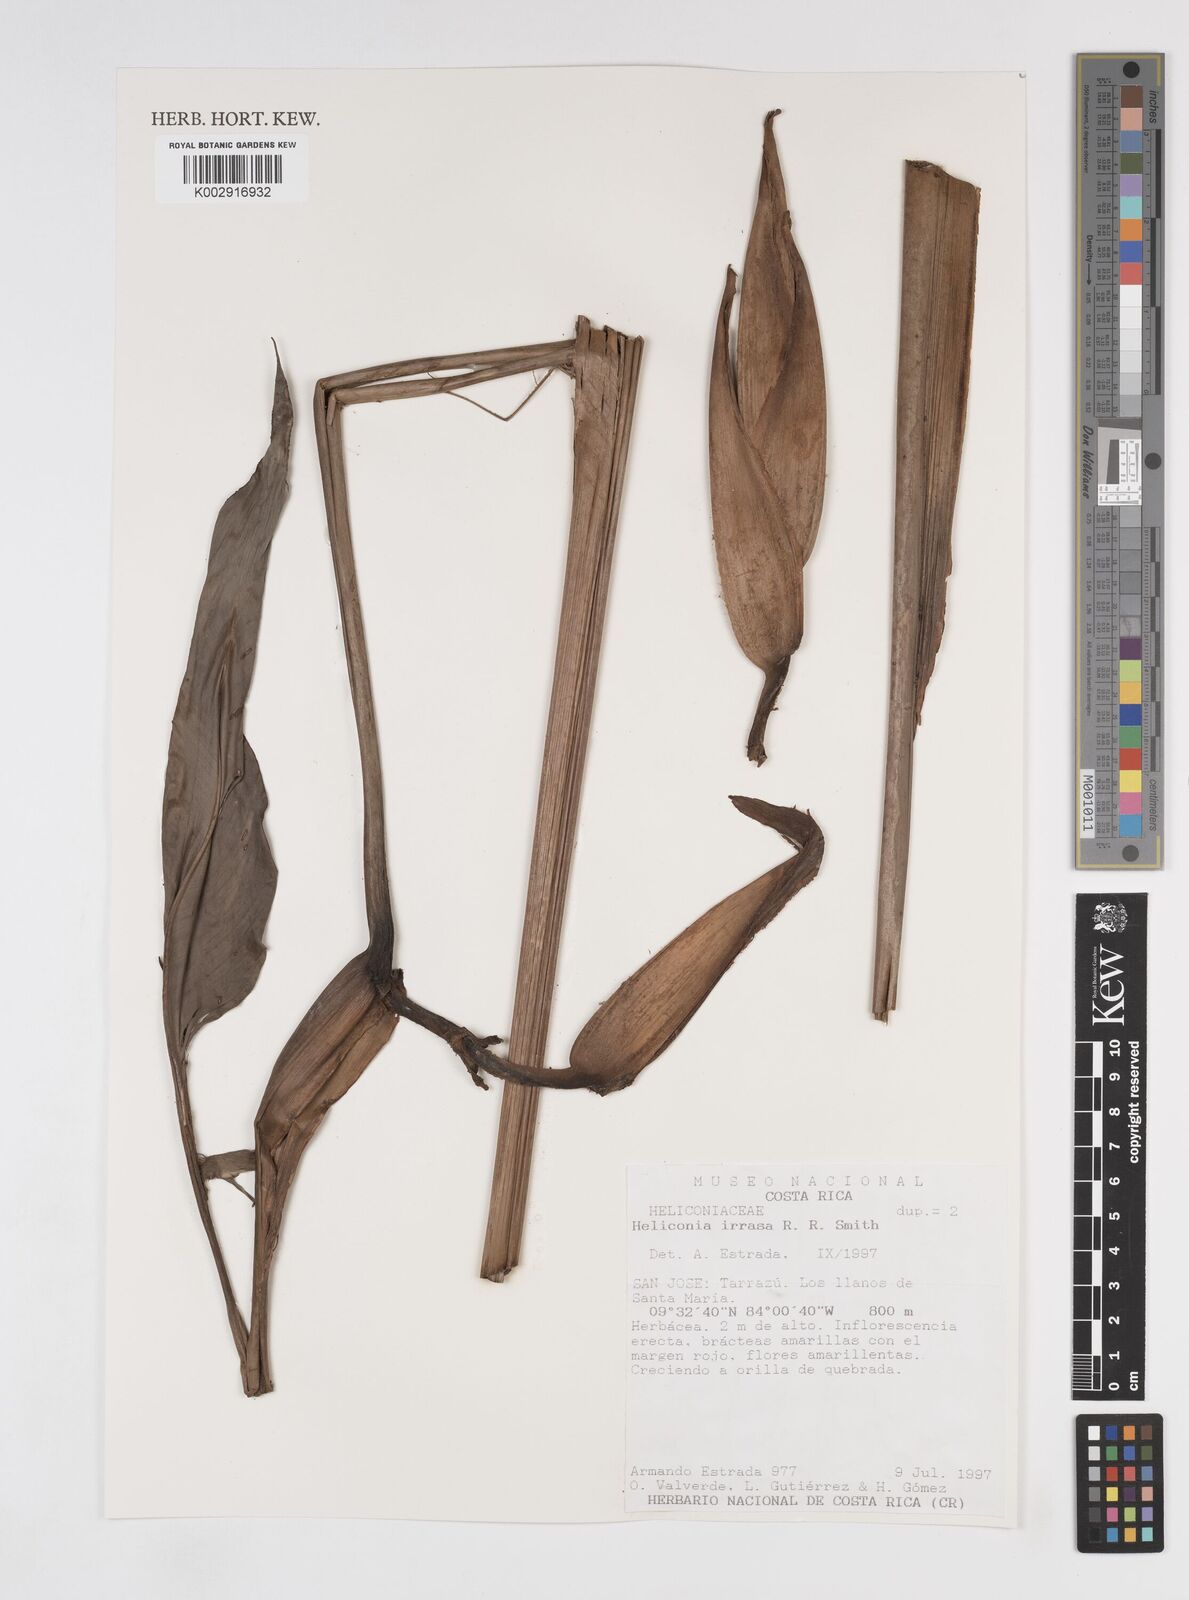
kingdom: Plantae
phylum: Tracheophyta
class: Liliopsida
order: Zingiberales
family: Heliconiaceae
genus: Heliconia
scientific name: Heliconia irrasa
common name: Wild plantain
